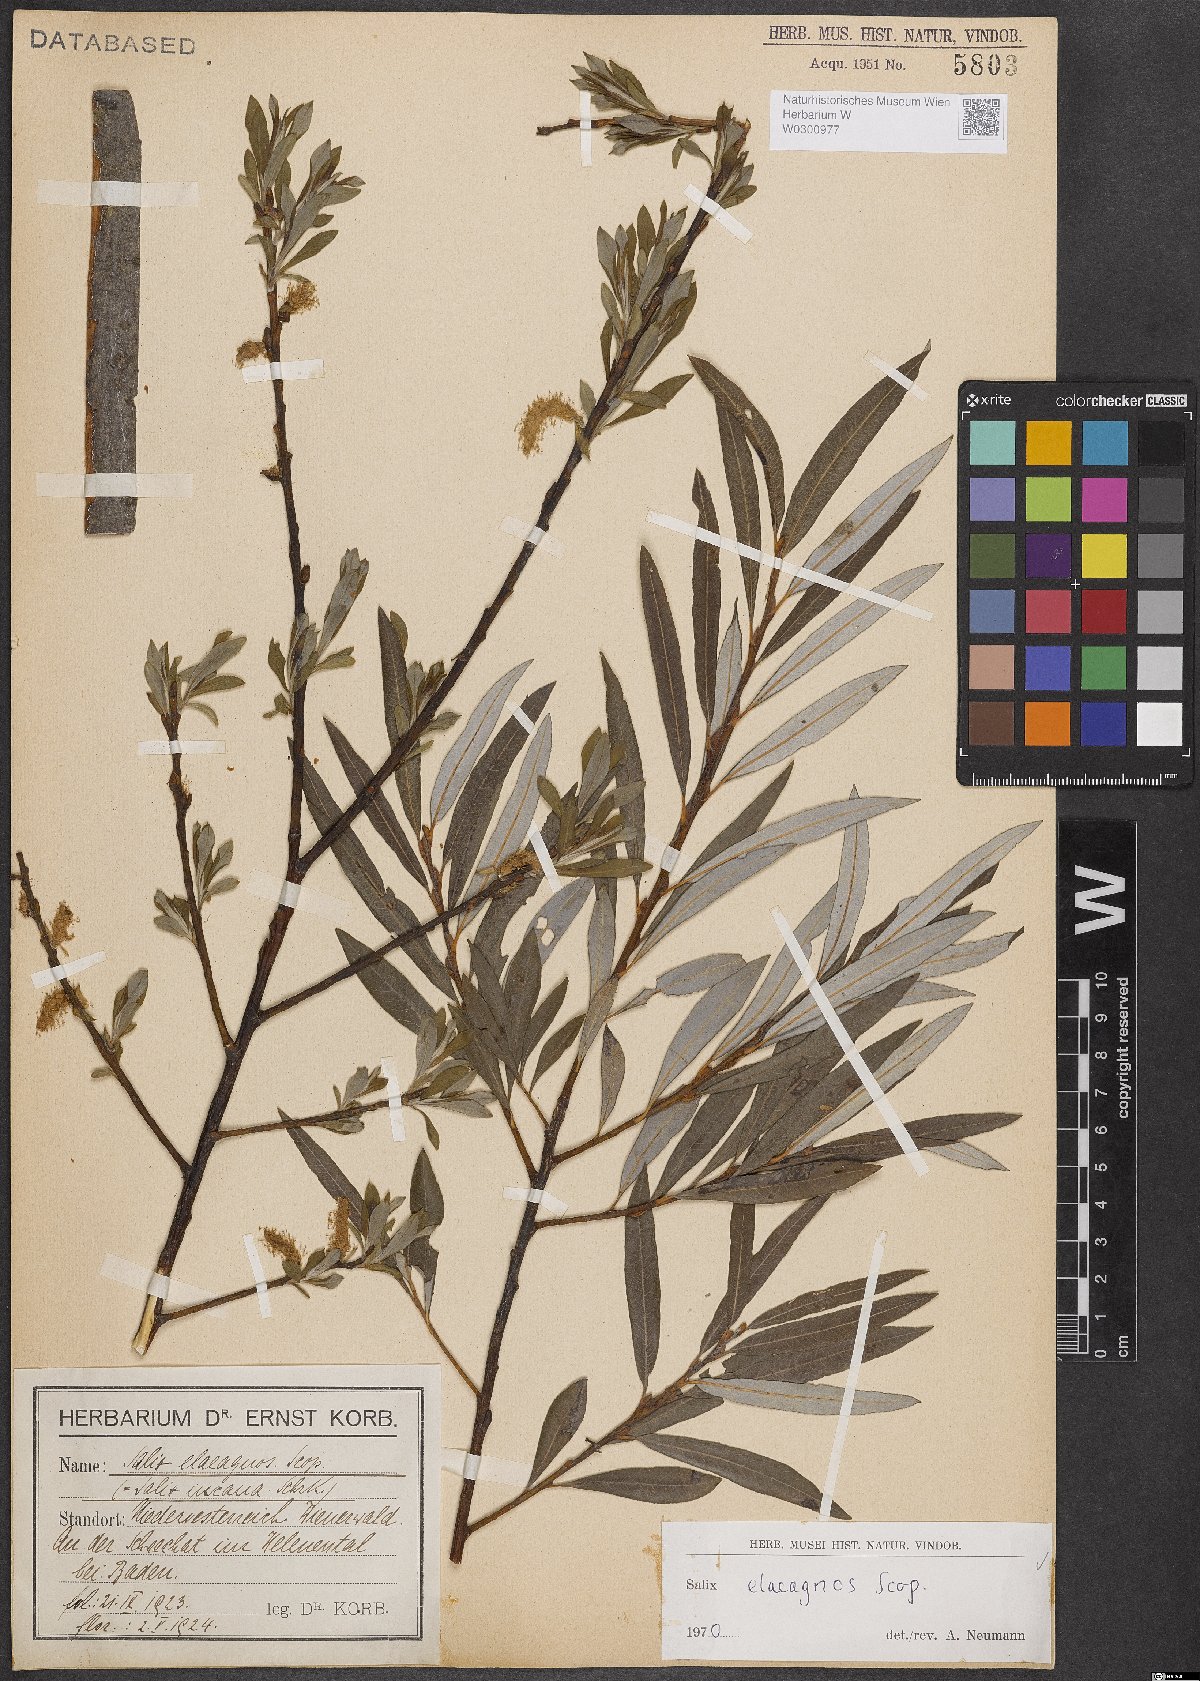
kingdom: Plantae
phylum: Tracheophyta
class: Magnoliopsida
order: Malpighiales
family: Salicaceae
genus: Salix
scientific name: Salix eleagnos
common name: Elaeagnus willow
